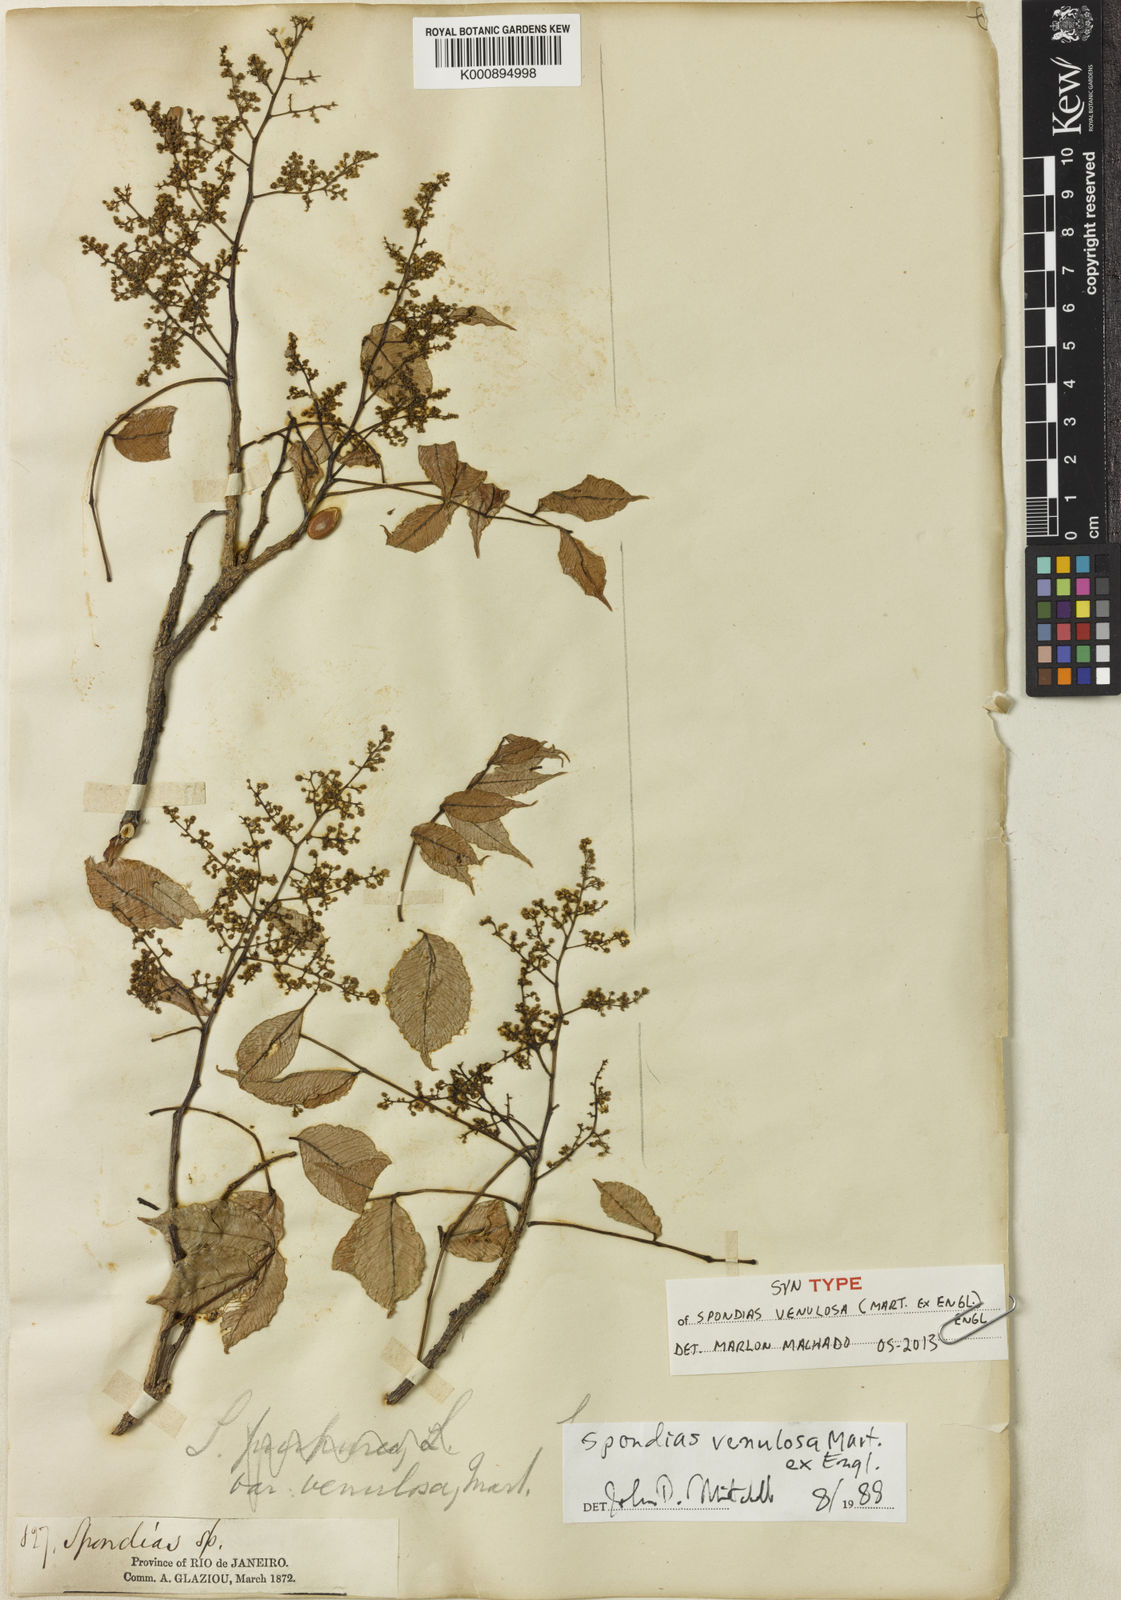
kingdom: Plantae
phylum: Tracheophyta
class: Magnoliopsida
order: Sapindales
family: Anacardiaceae
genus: Spondias
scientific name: Spondias venulosa
